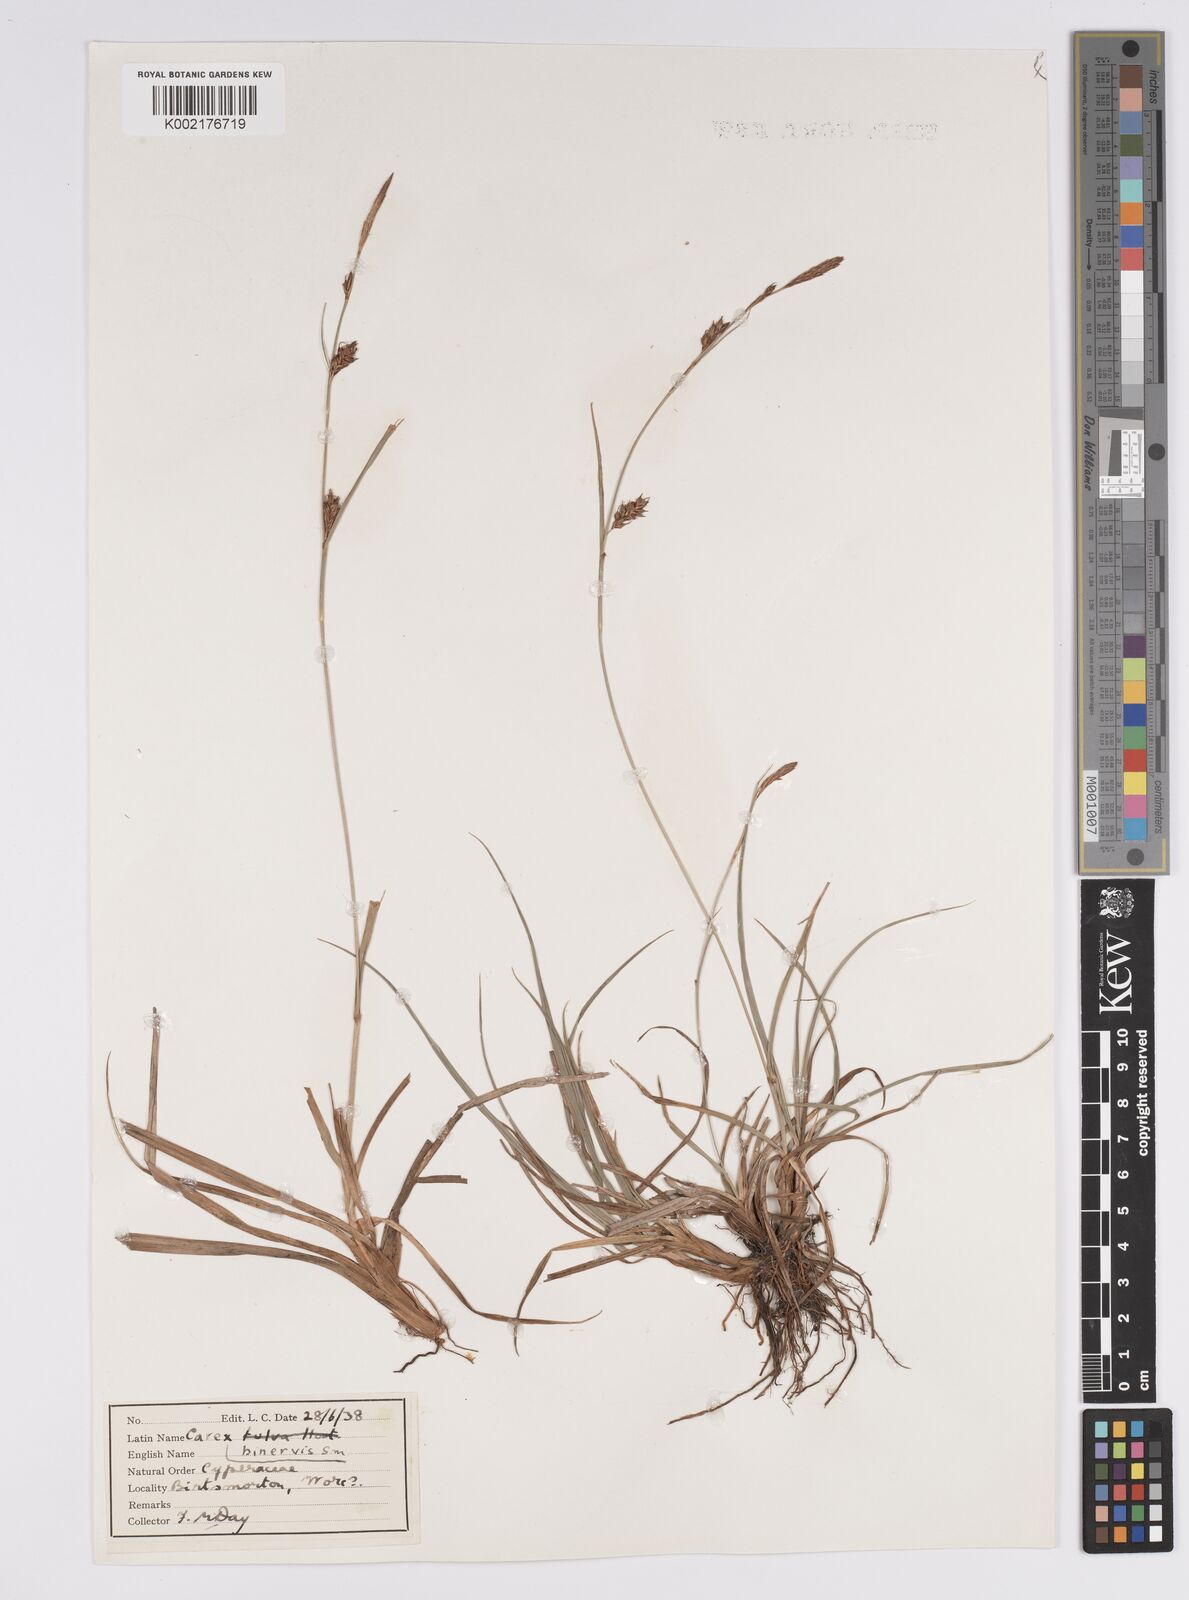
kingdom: Plantae
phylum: Tracheophyta
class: Liliopsida
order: Poales
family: Cyperaceae
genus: Carex
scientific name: Carex binervis
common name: Green-ribbed sedge
